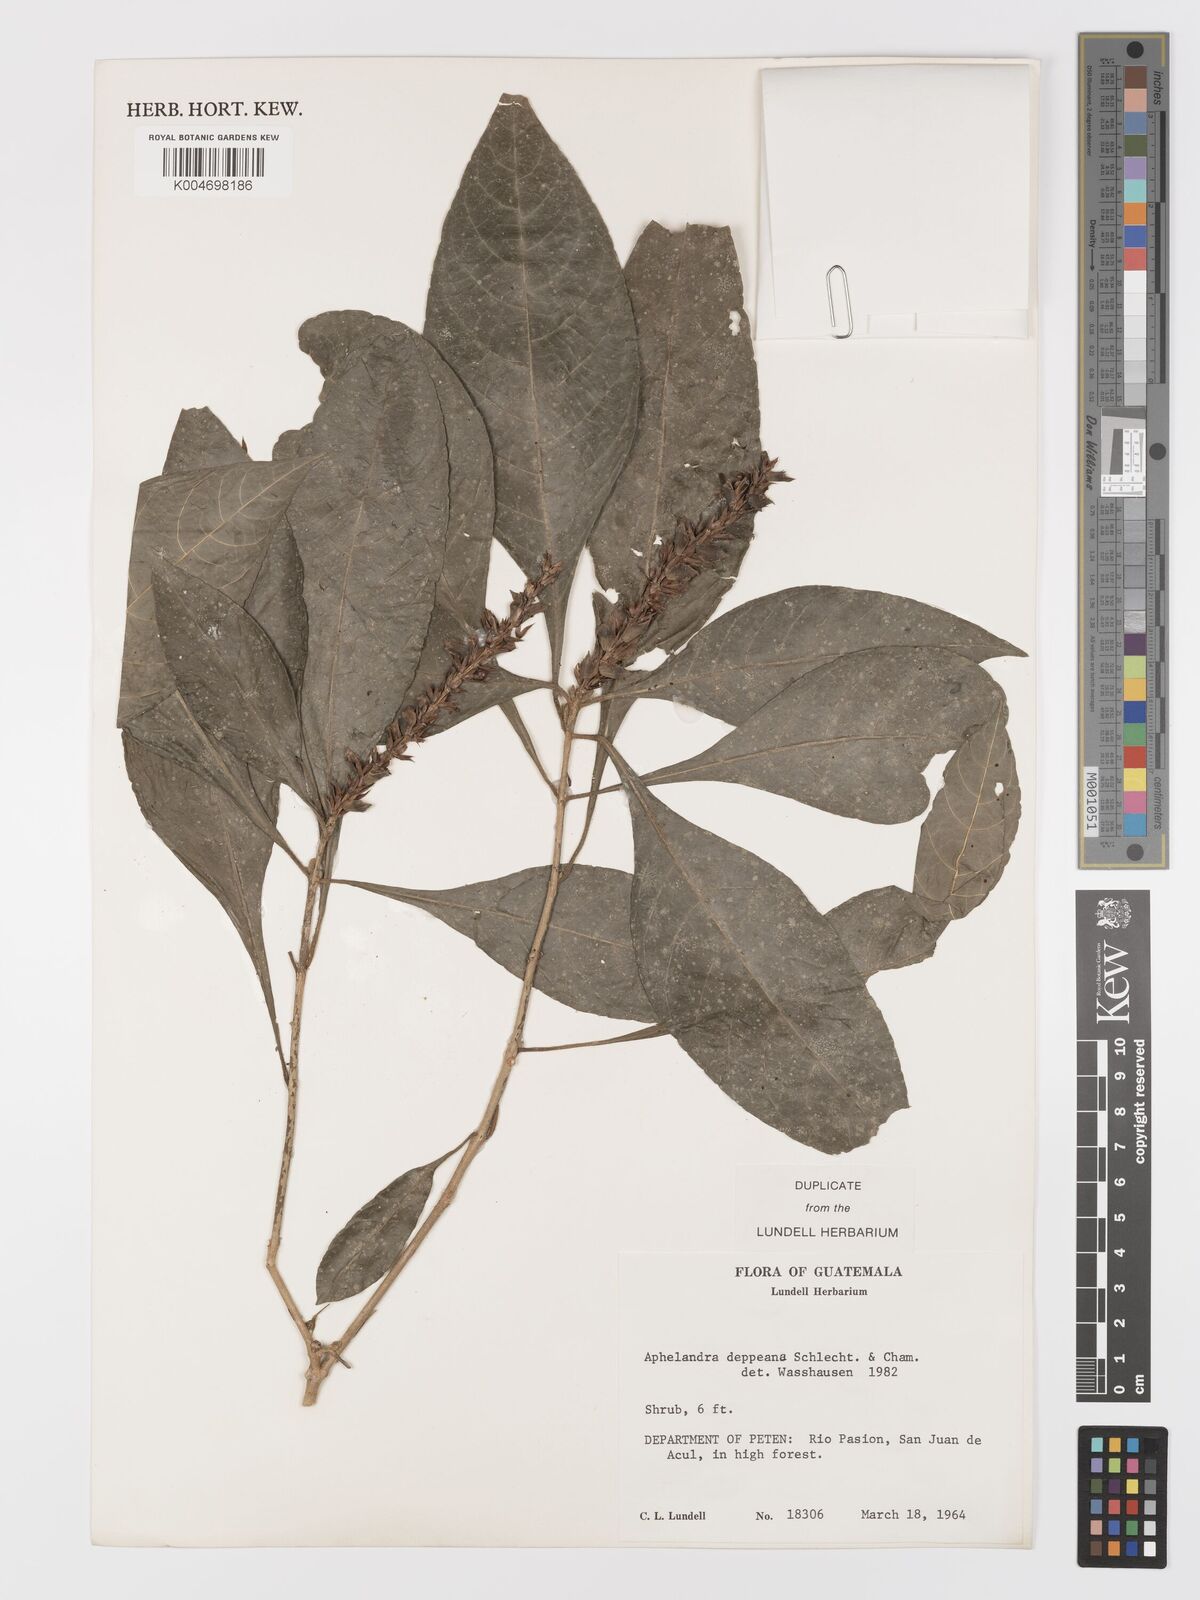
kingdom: Plantae
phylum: Tracheophyta
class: Magnoliopsida
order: Lamiales
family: Acanthaceae
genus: Aphelandra
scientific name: Aphelandra scabra
